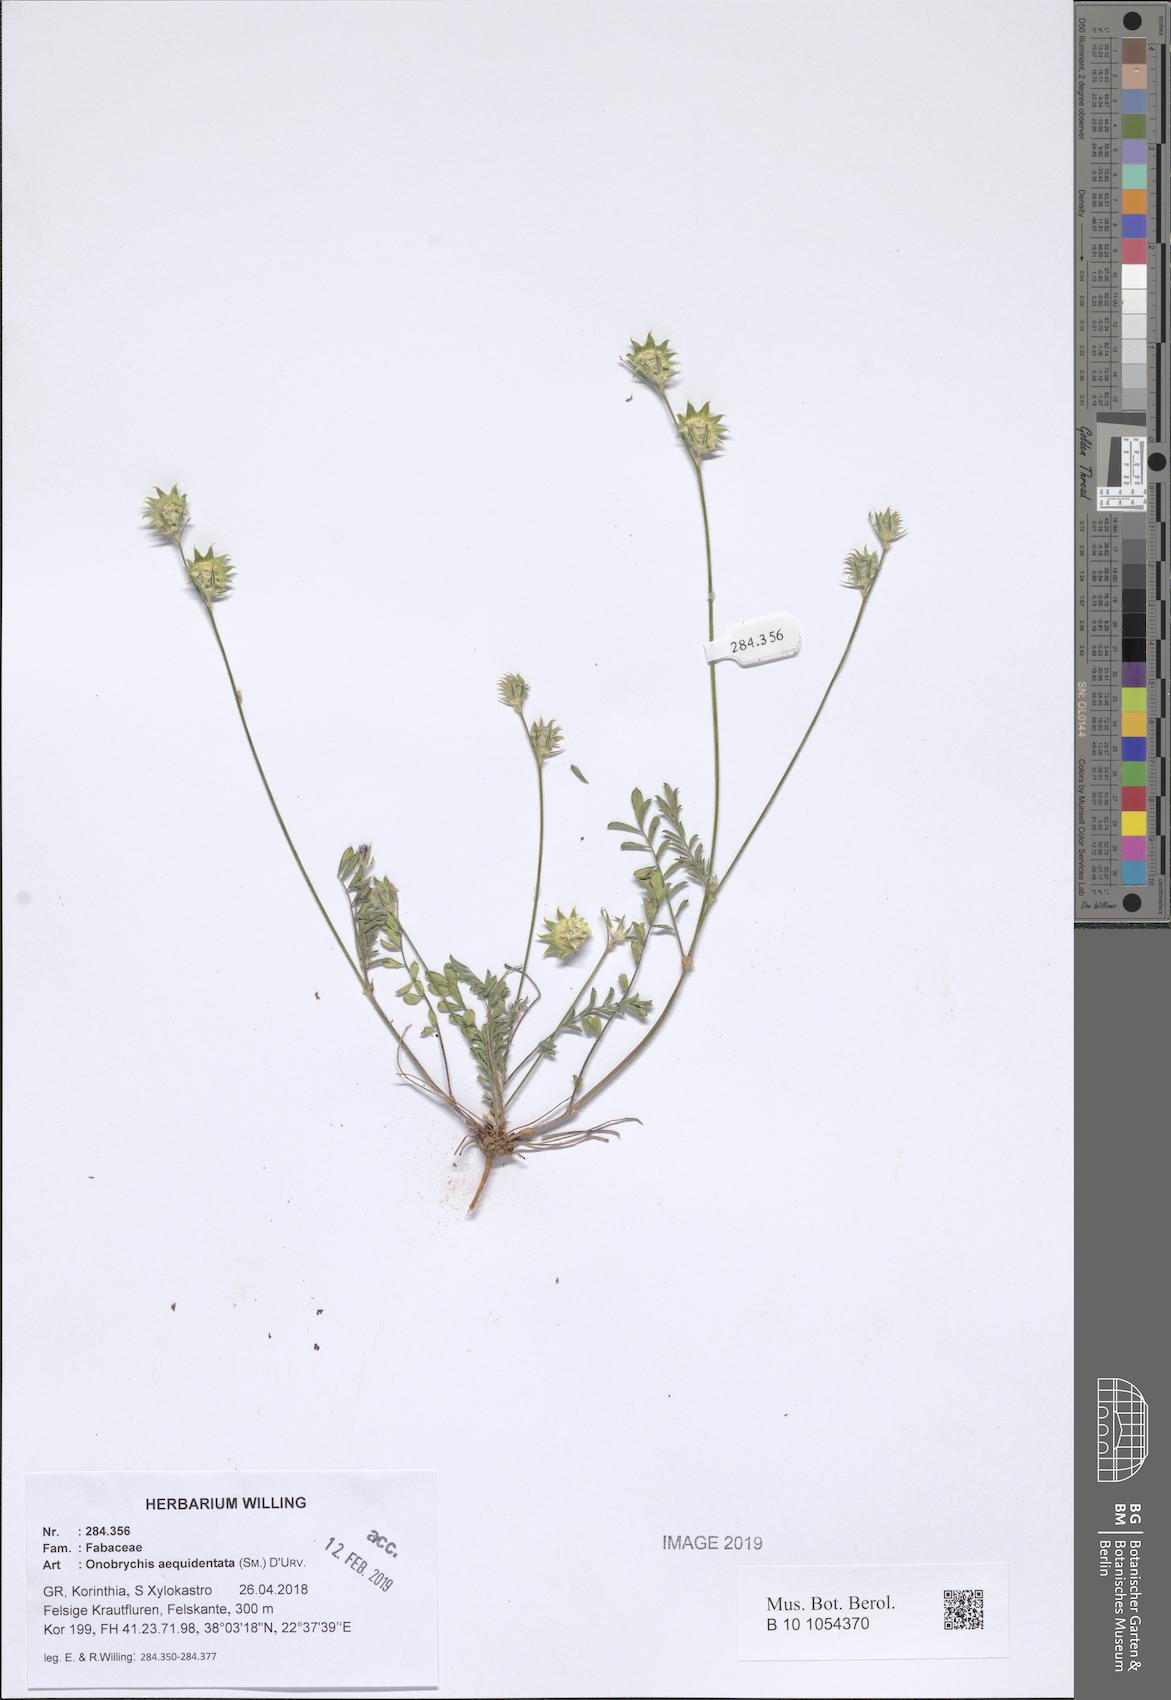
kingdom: Plantae
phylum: Tracheophyta
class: Magnoliopsida
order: Fabales
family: Fabaceae
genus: Onobrychis
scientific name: Onobrychis aequidentata
